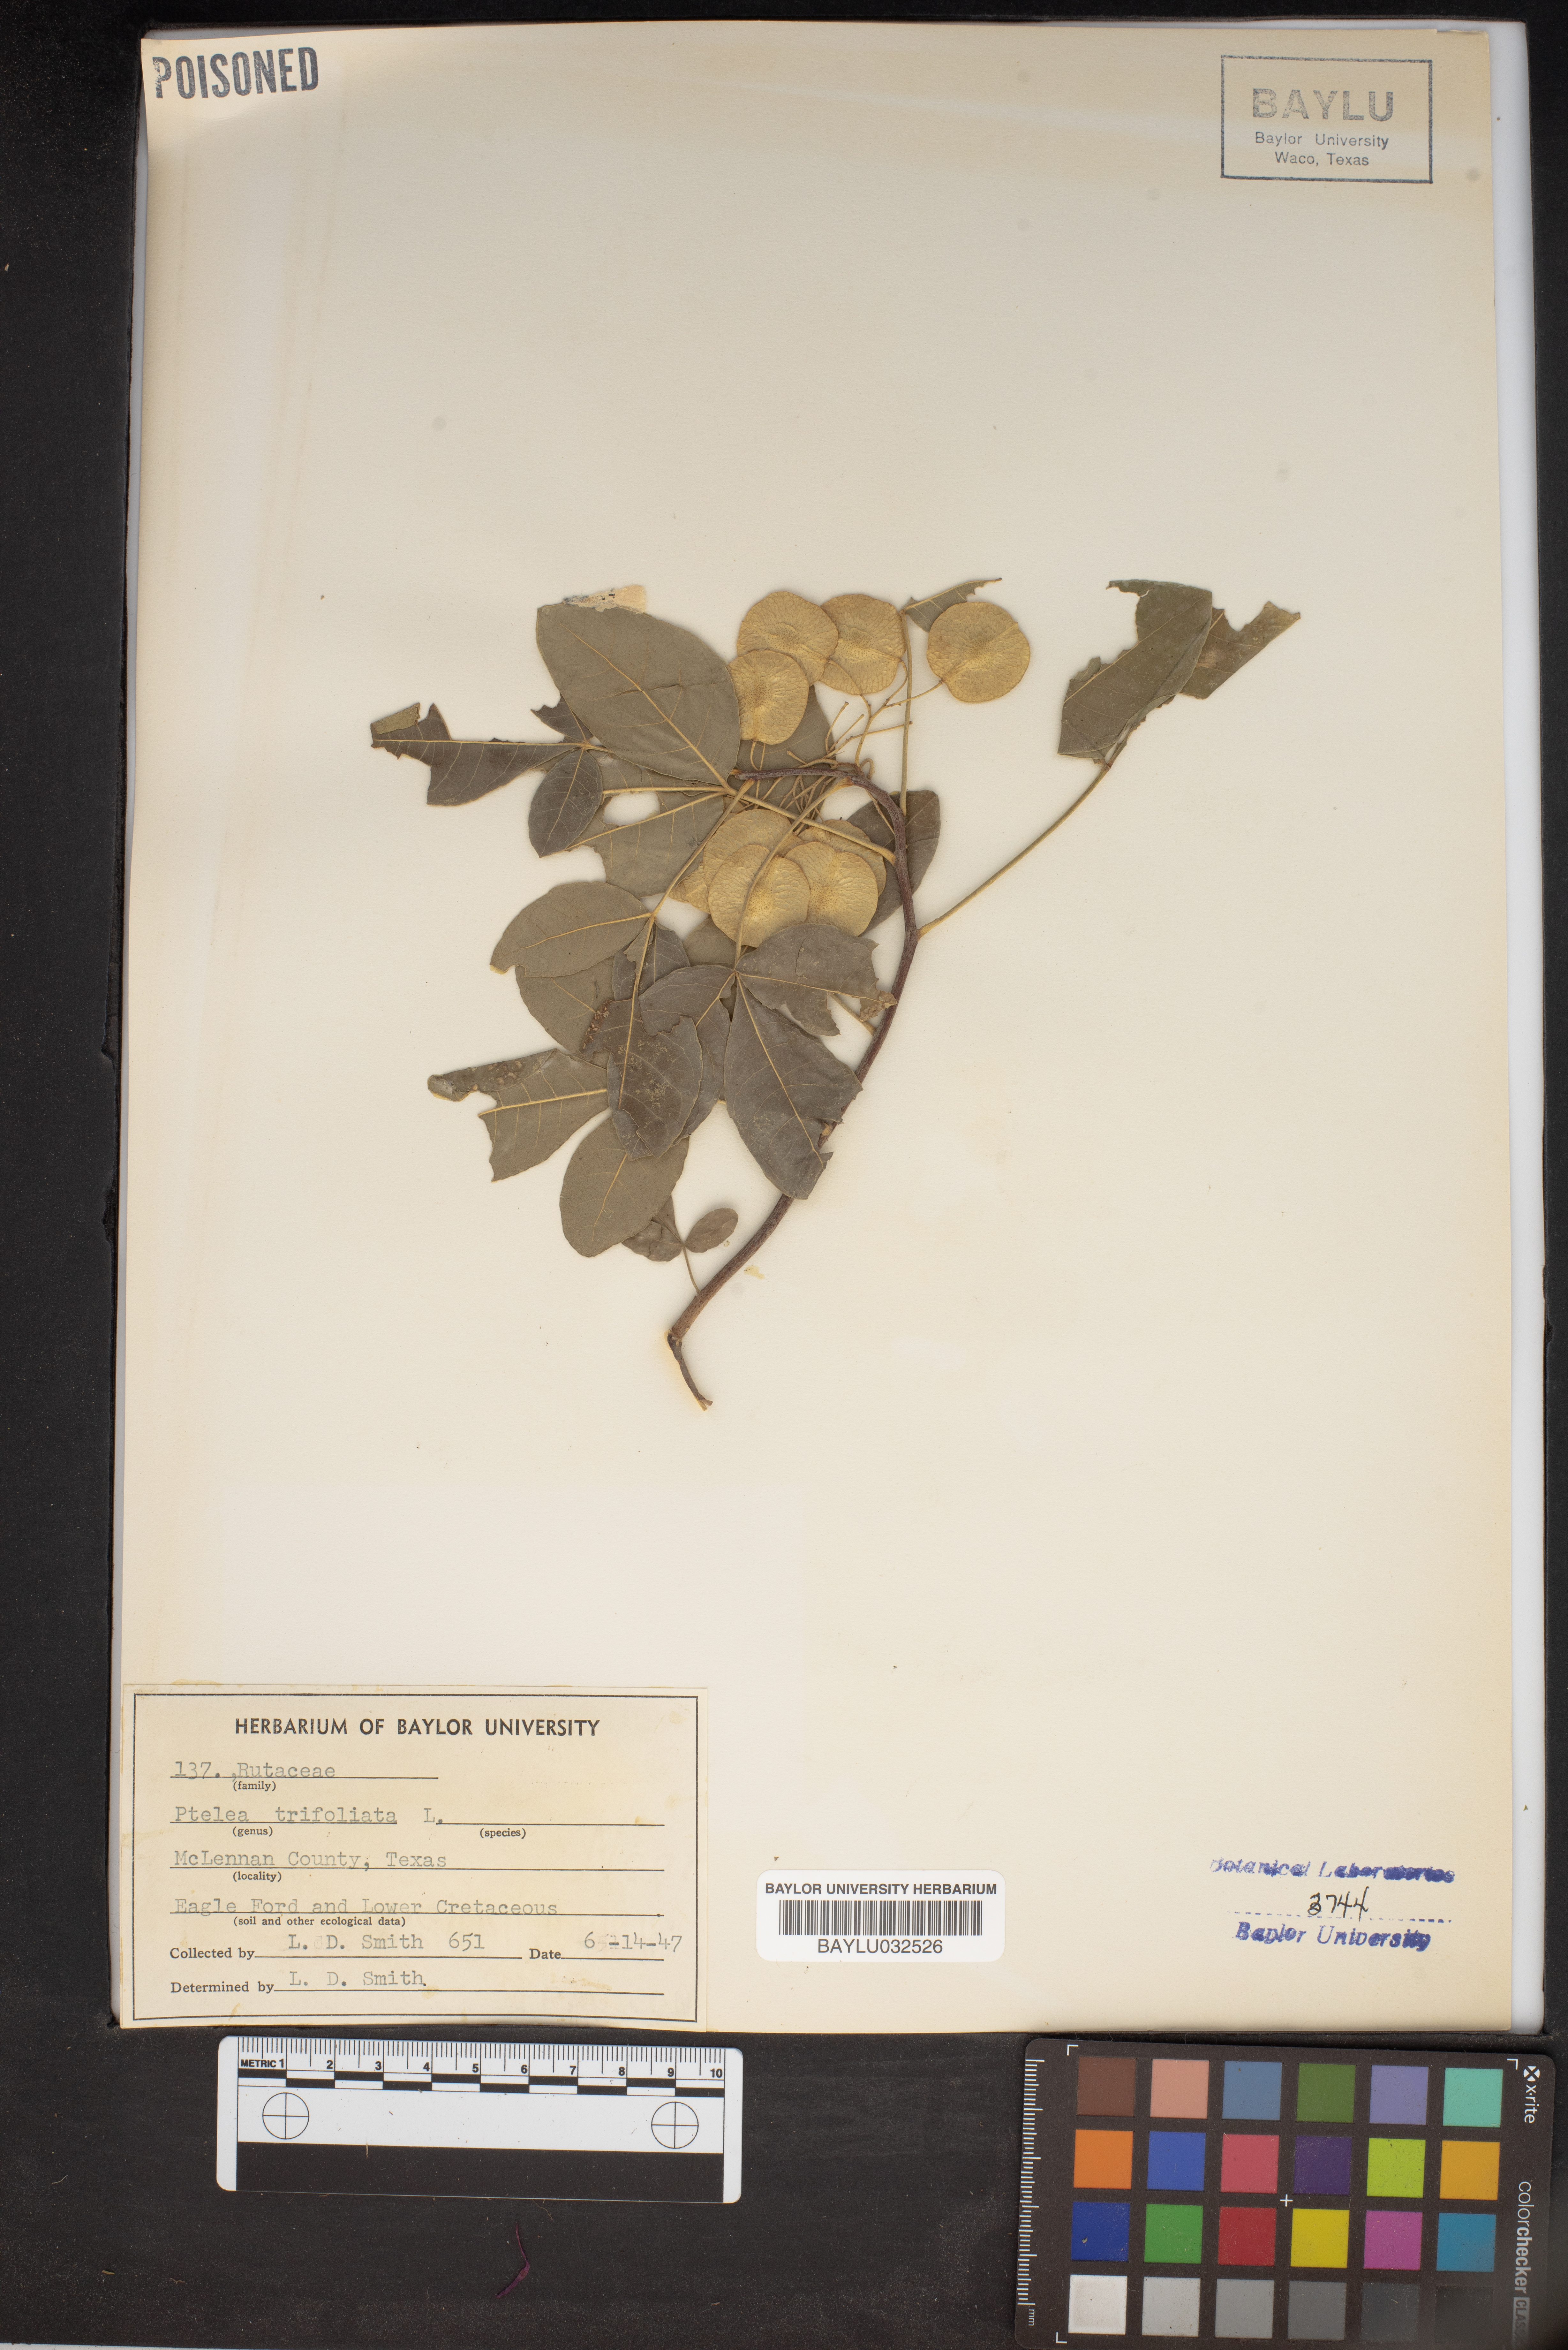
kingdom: Plantae
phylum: Tracheophyta
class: Magnoliopsida
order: Sapindales
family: Rutaceae
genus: Ptelea
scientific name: Ptelea trifoliata
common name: Common hop-tree
